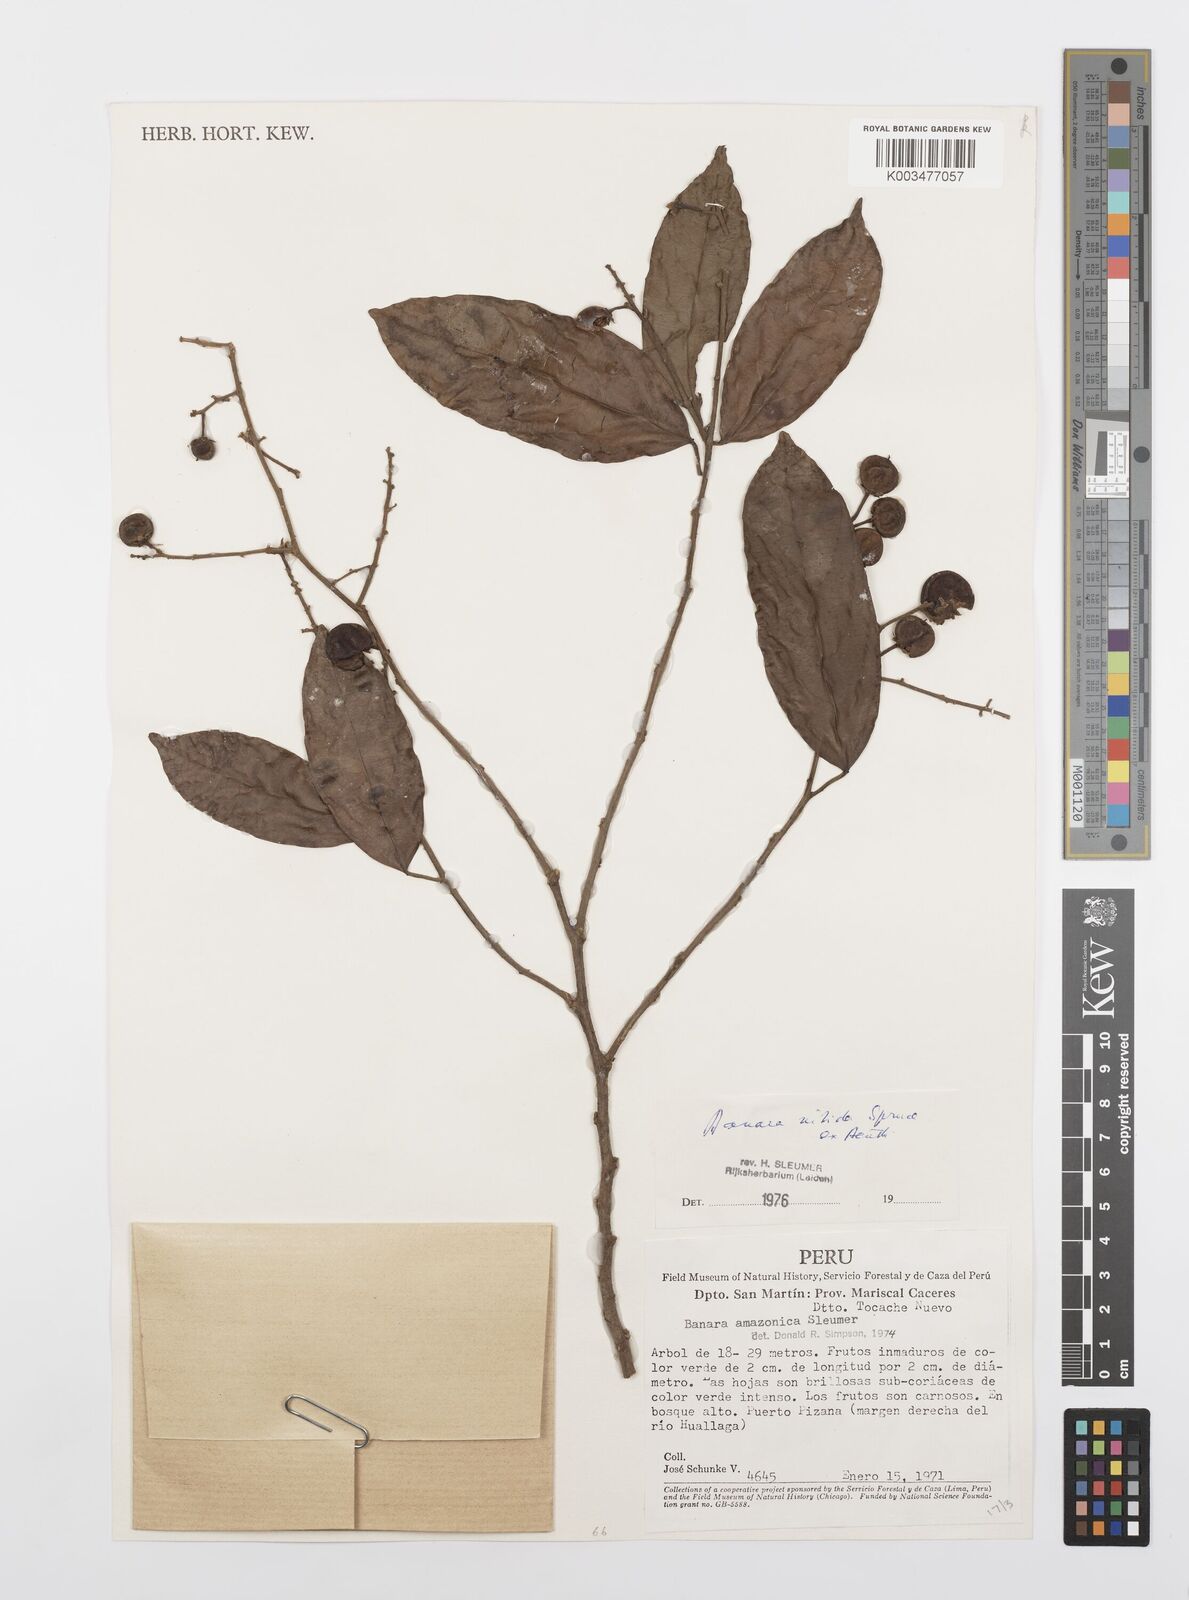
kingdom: Plantae
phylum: Tracheophyta
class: Magnoliopsida
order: Malpighiales
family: Salicaceae
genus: Banara
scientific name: Banara nitida
